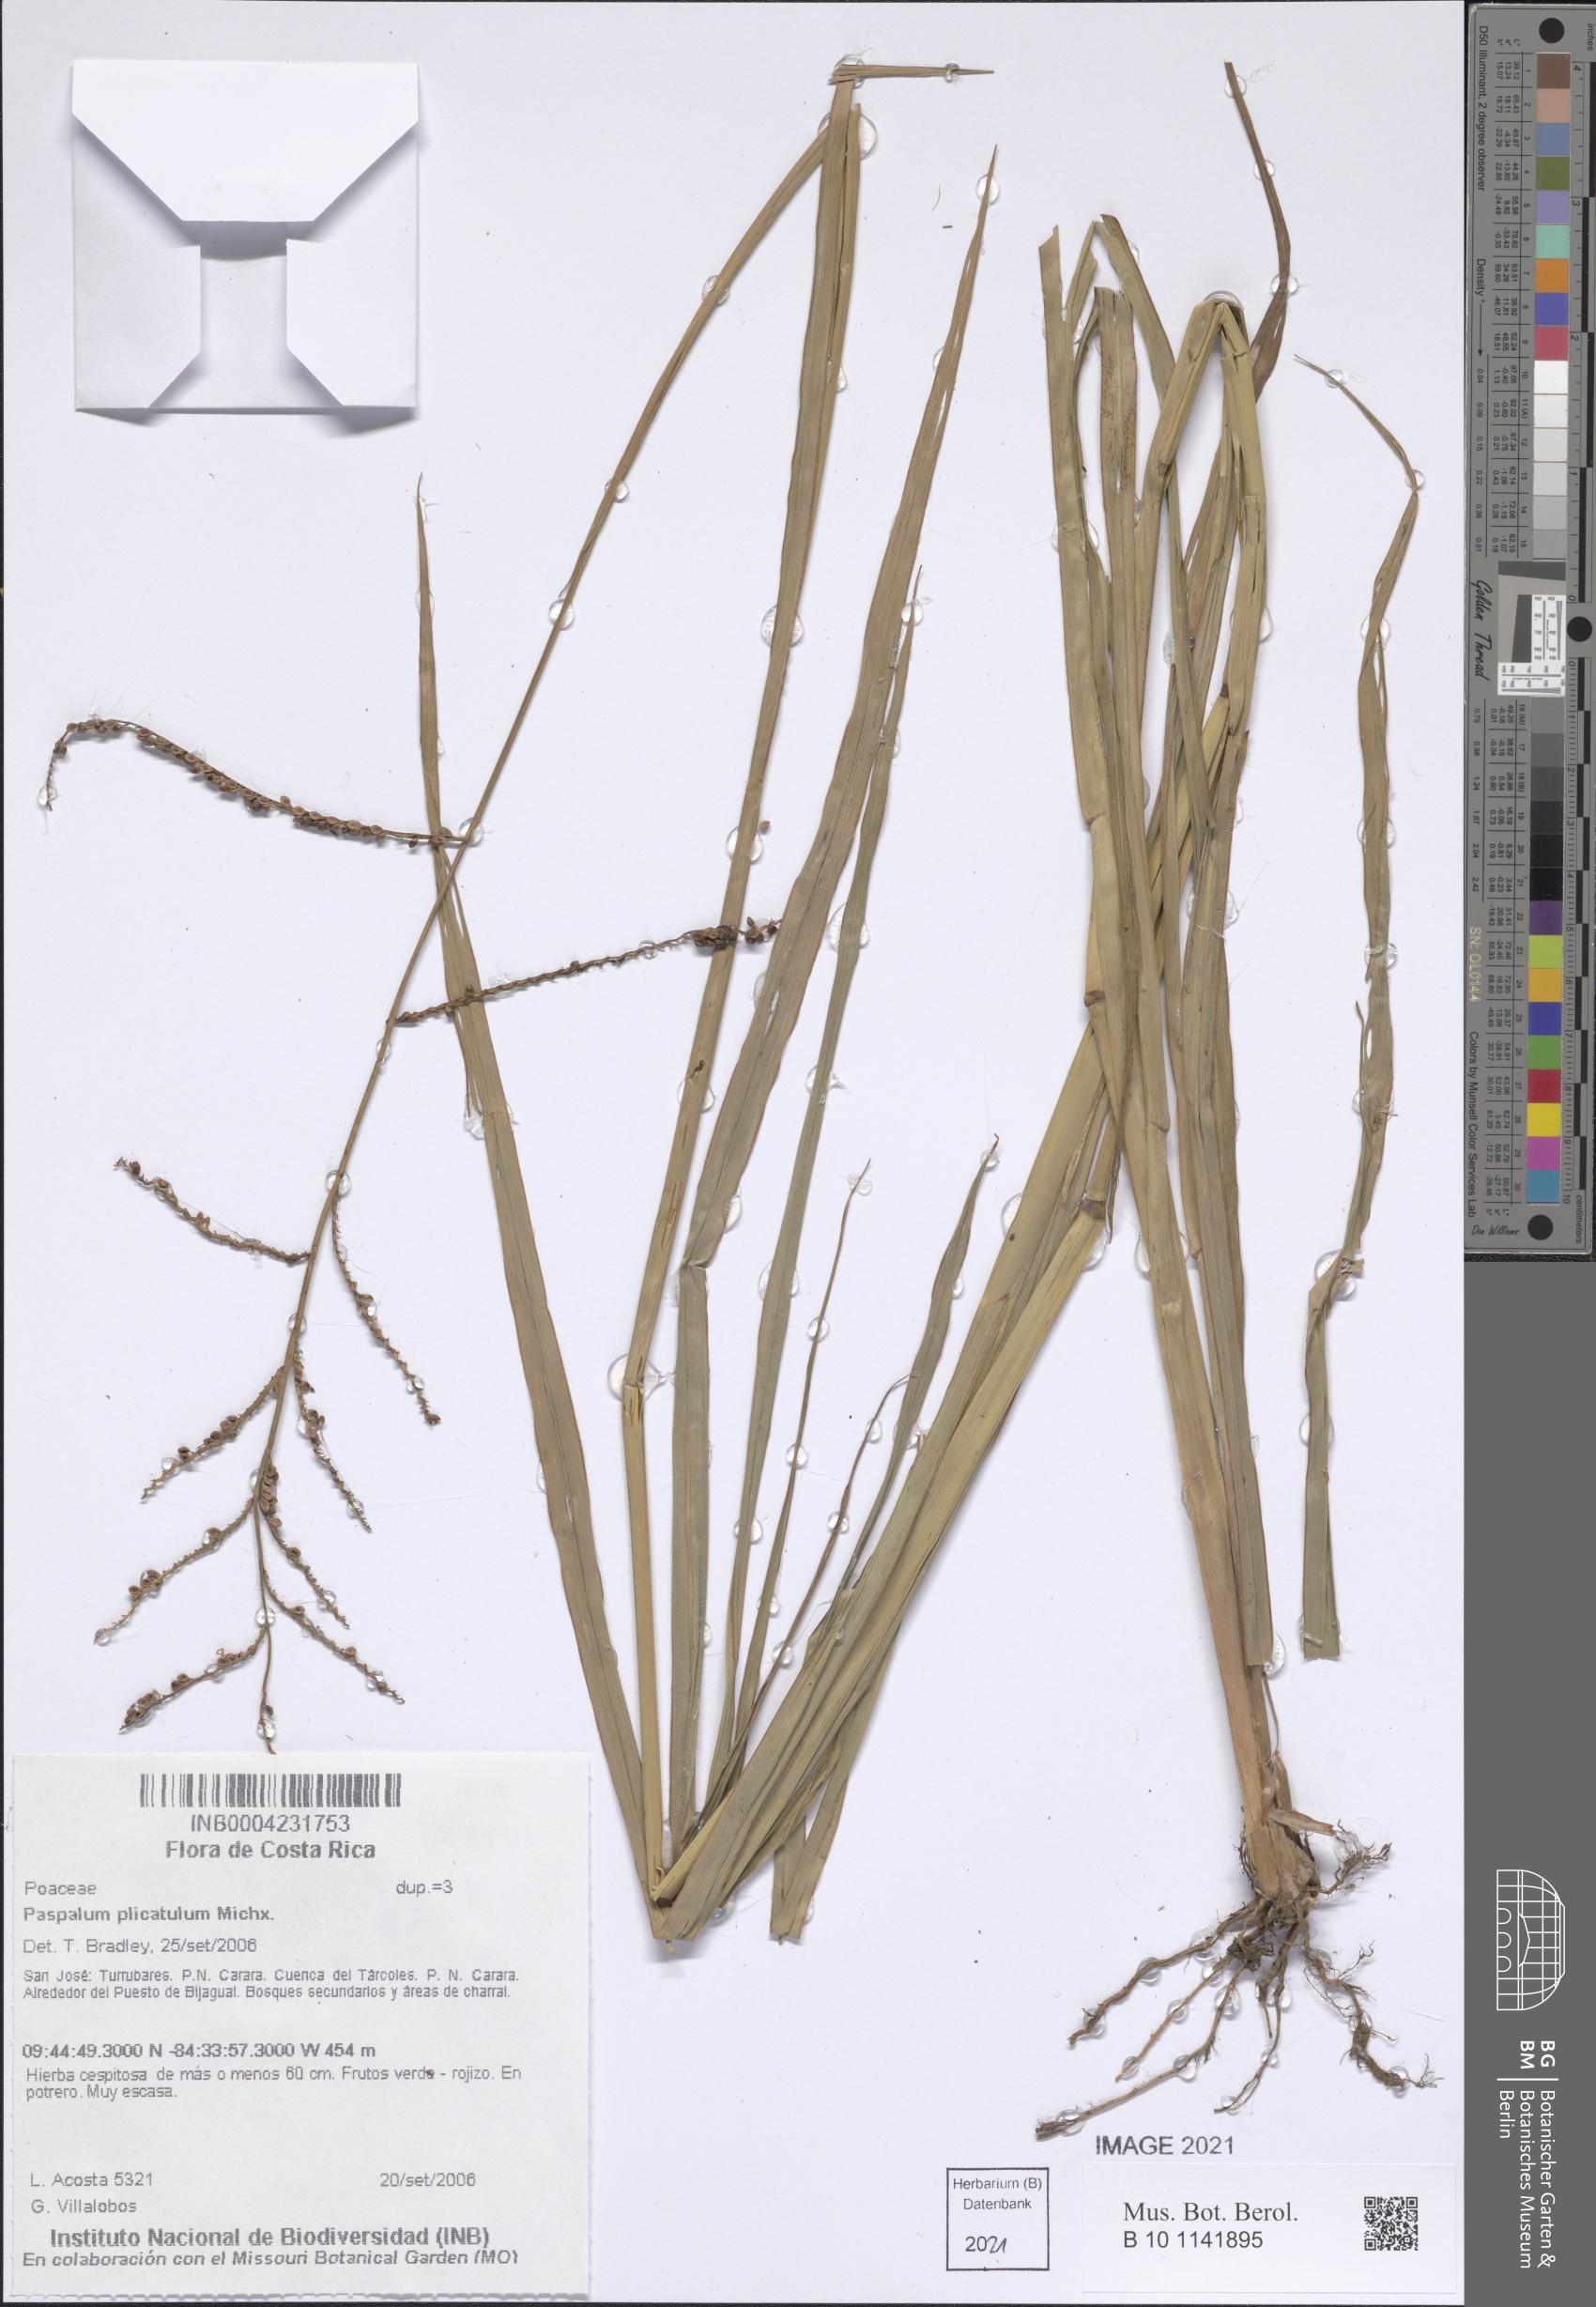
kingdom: Plantae
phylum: Tracheophyta
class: Liliopsida
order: Poales
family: Poaceae
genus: Paspalum
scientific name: Paspalum plicatulum
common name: Top paspalum
